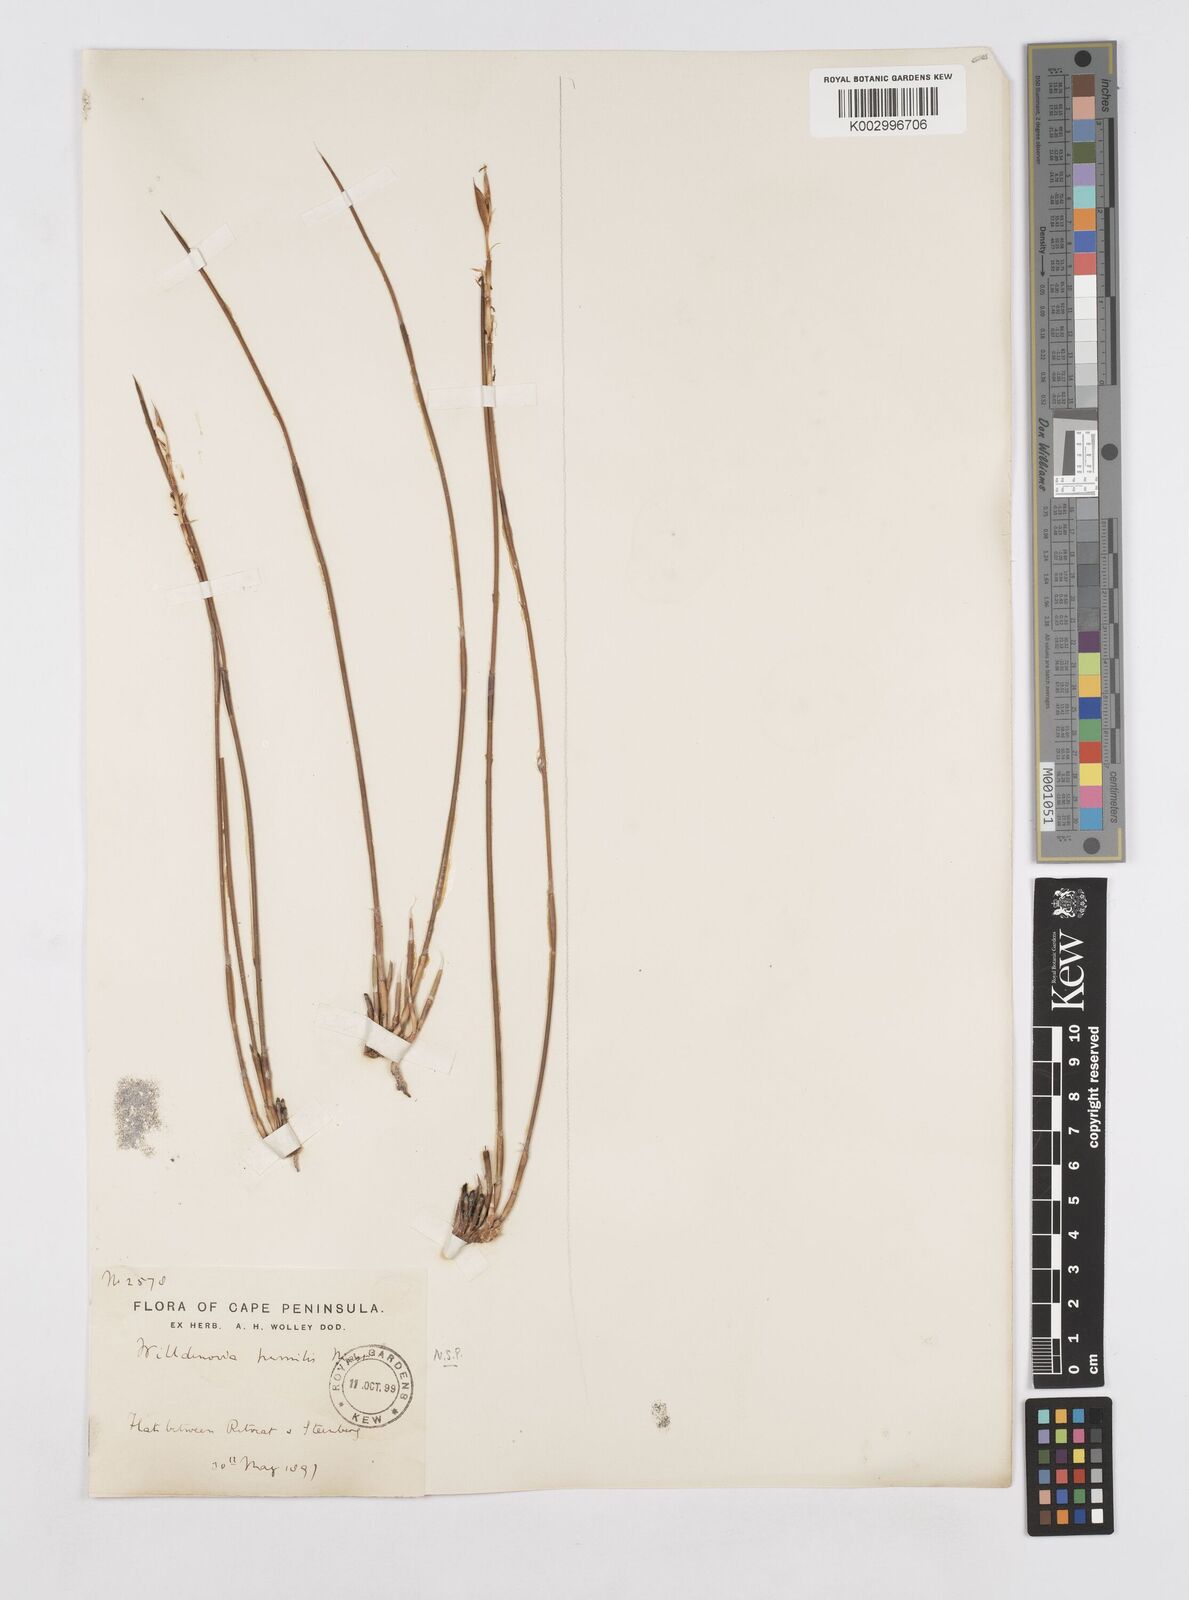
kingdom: Plantae
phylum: Tracheophyta
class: Liliopsida
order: Poales
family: Restionaceae
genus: Willdenowia
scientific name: Willdenowia humilis
